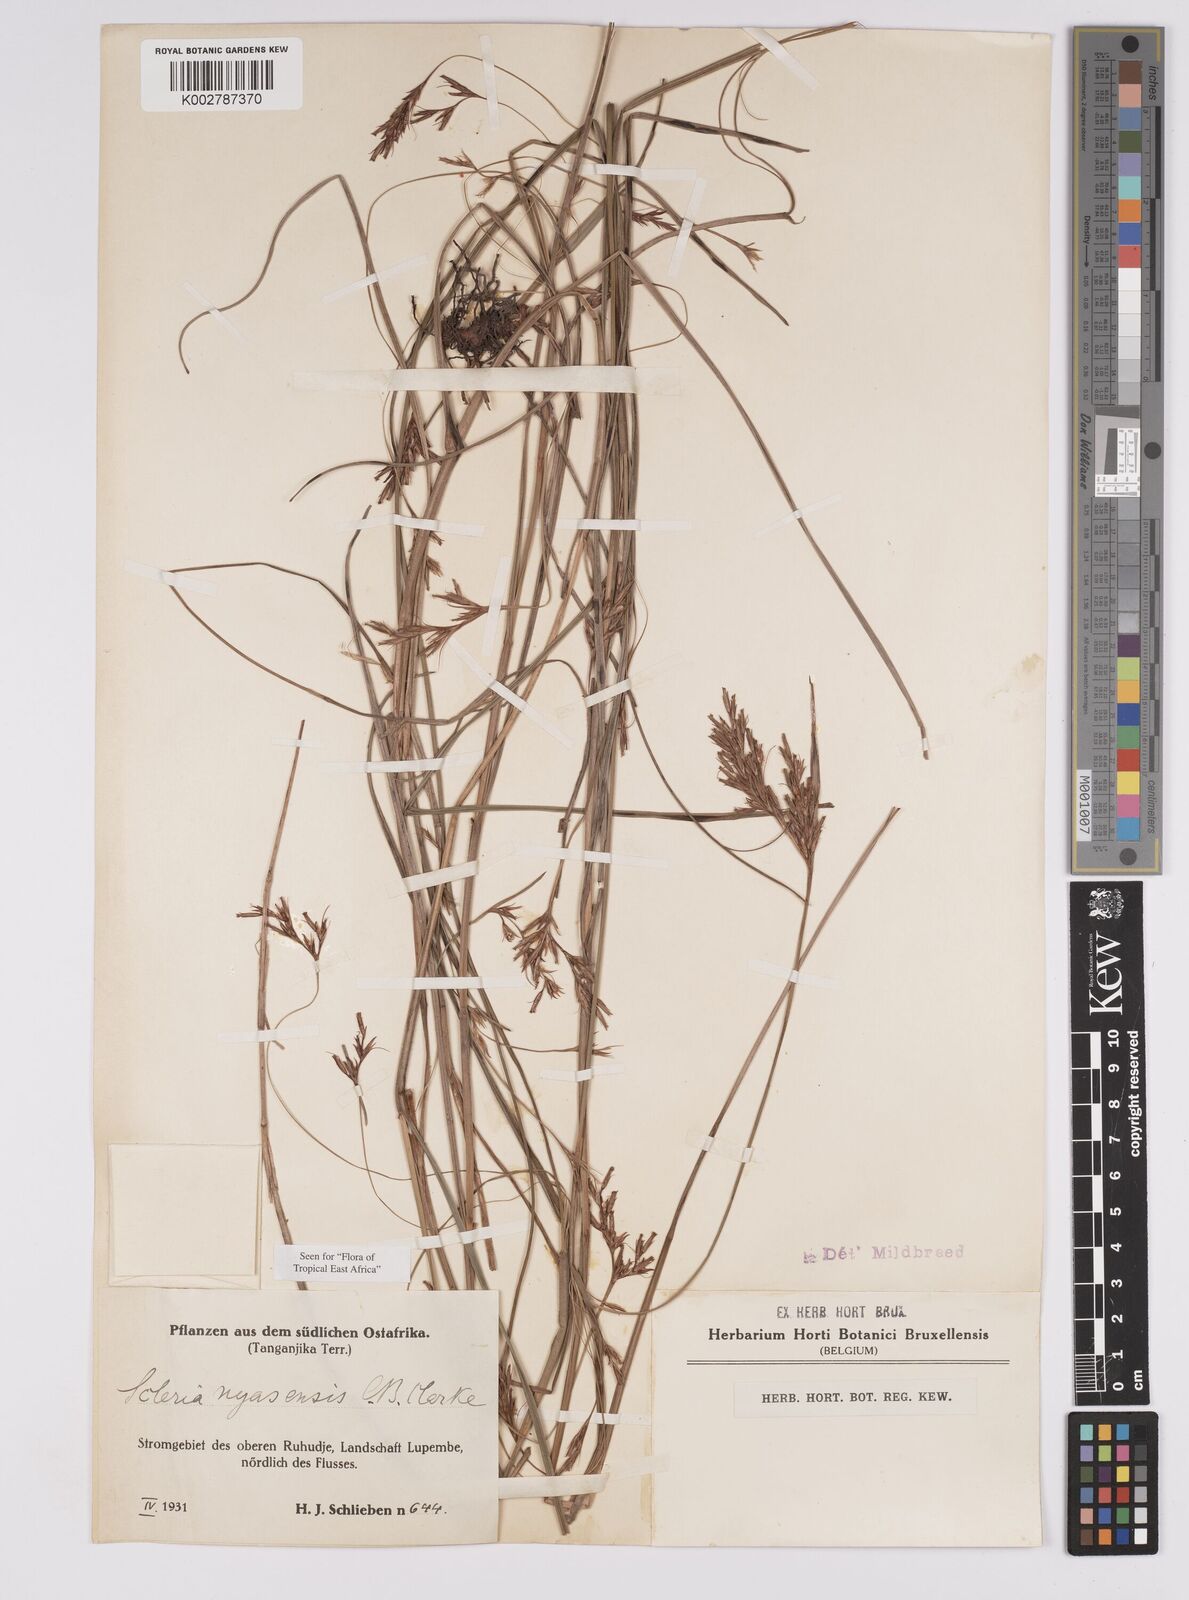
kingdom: Plantae
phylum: Tracheophyta
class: Liliopsida
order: Poales
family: Cyperaceae
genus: Scleria
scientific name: Scleria nyasensis
